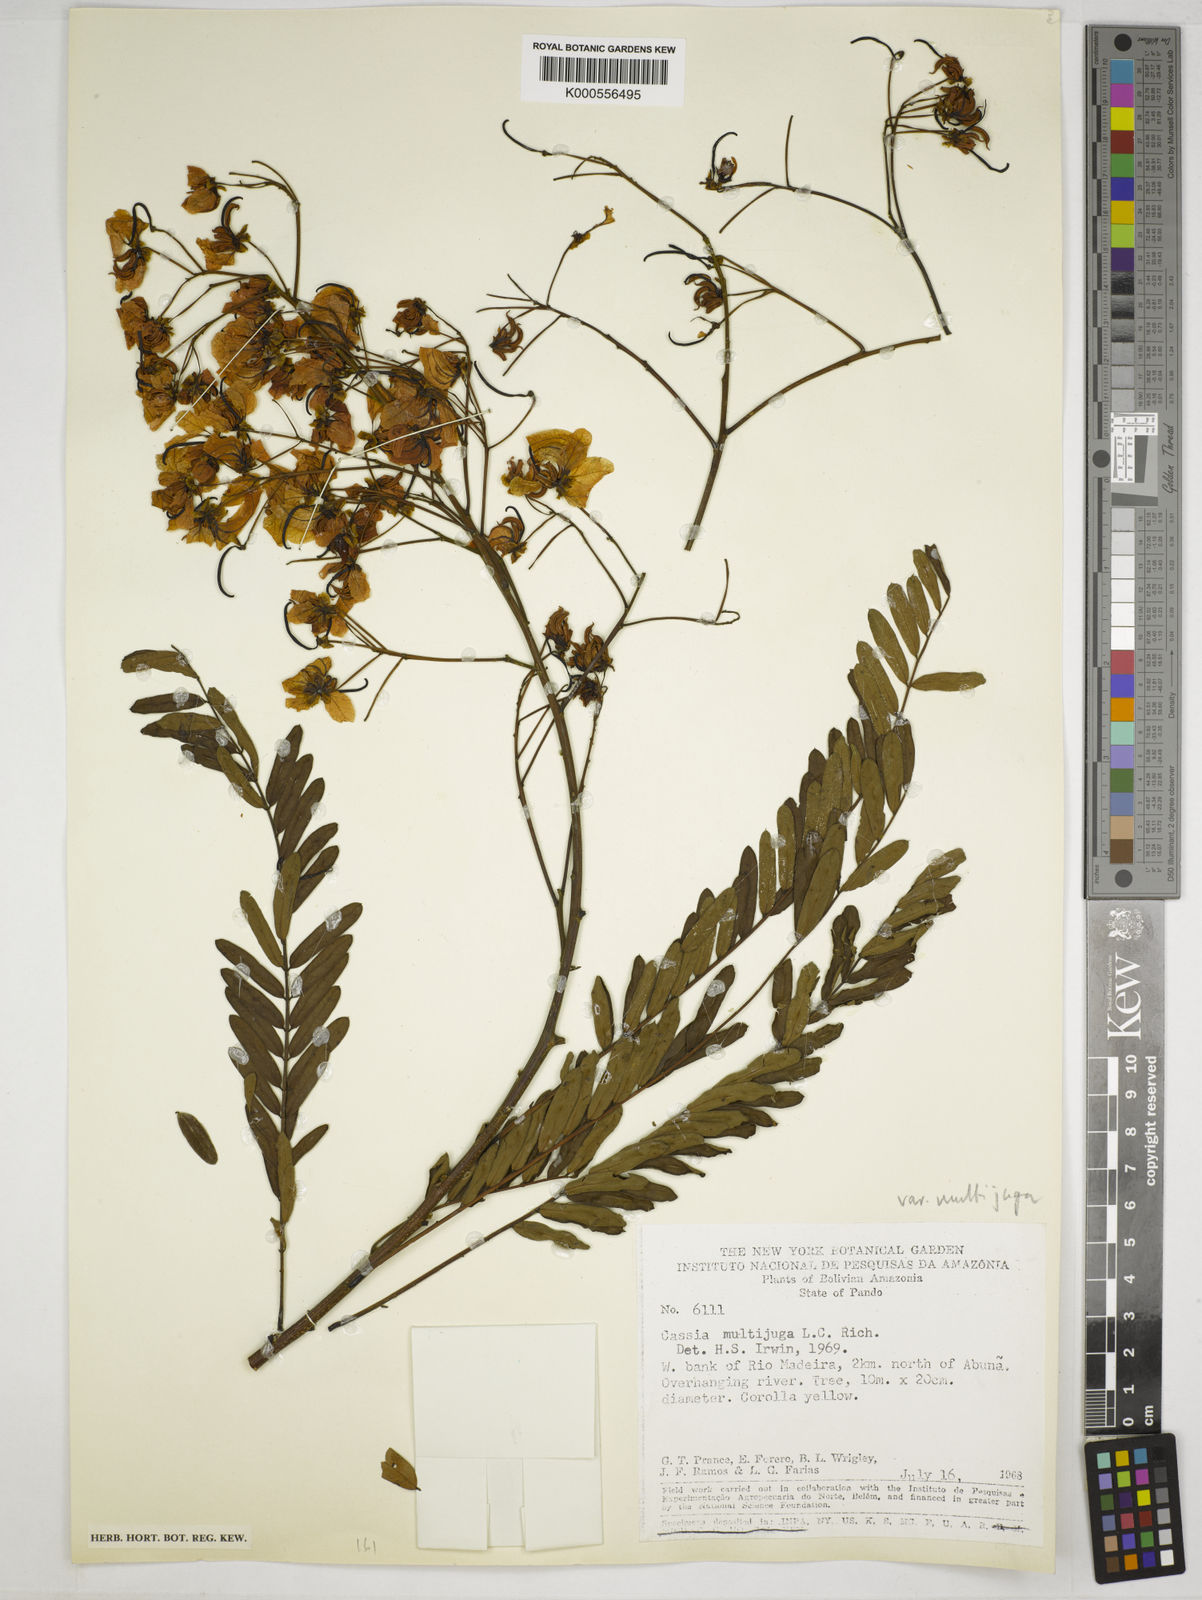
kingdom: Plantae
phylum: Tracheophyta
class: Magnoliopsida
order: Fabales
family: Fabaceae
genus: Senna
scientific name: Senna multijuga
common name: False sicklepod
